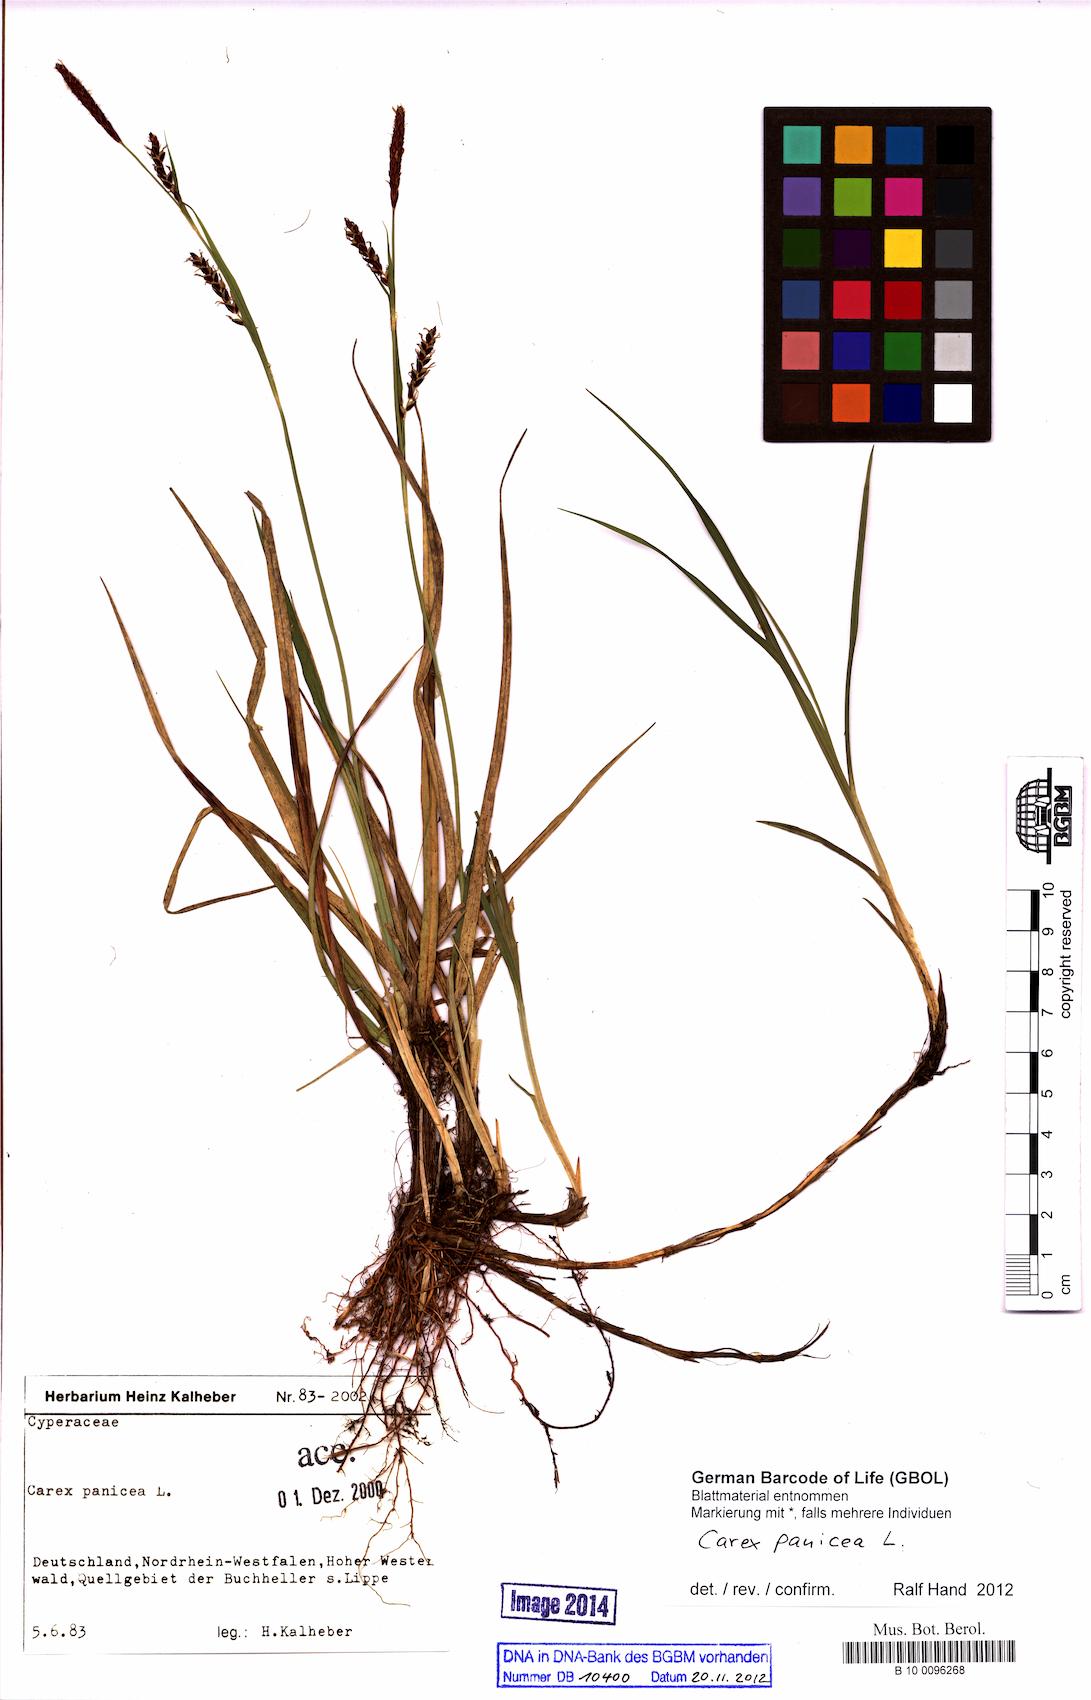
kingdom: Plantae
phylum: Tracheophyta
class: Liliopsida
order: Poales
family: Cyperaceae
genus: Carex
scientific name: Carex panicea
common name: Carnation sedge
